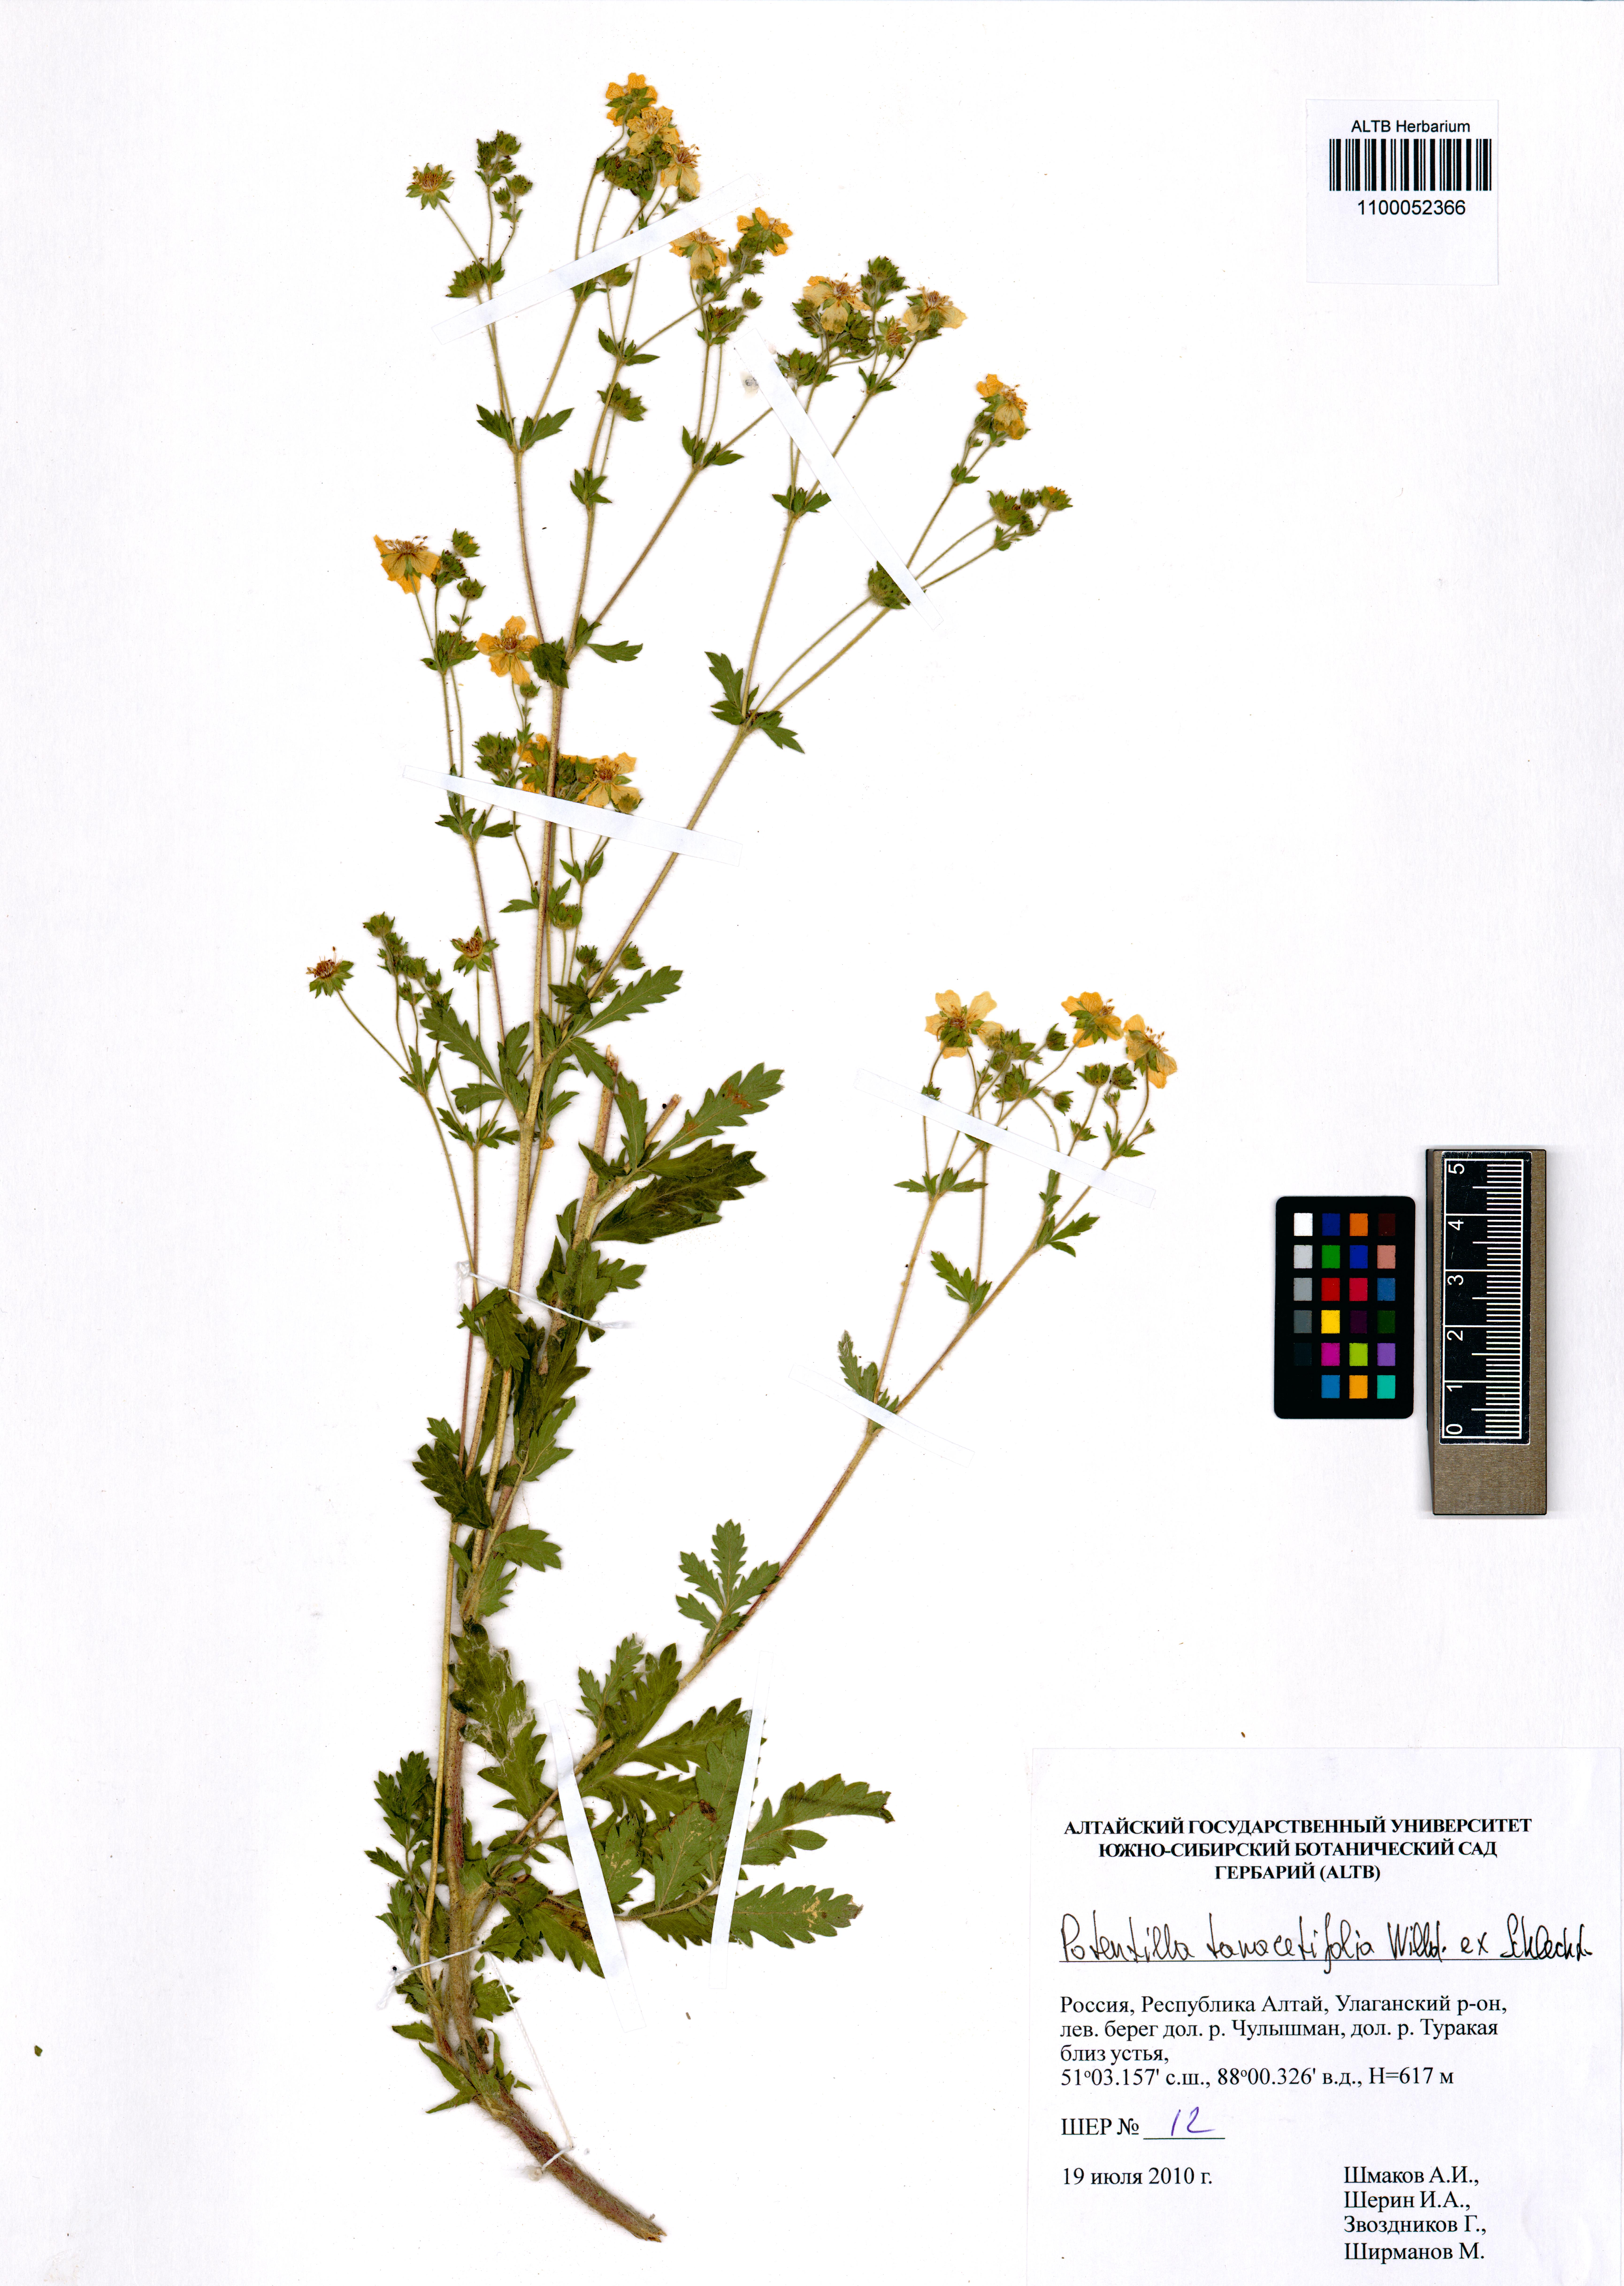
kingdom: Plantae
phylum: Tracheophyta
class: Magnoliopsida
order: Rosales
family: Rosaceae
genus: Potentilla
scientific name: Potentilla tanacetifolia
